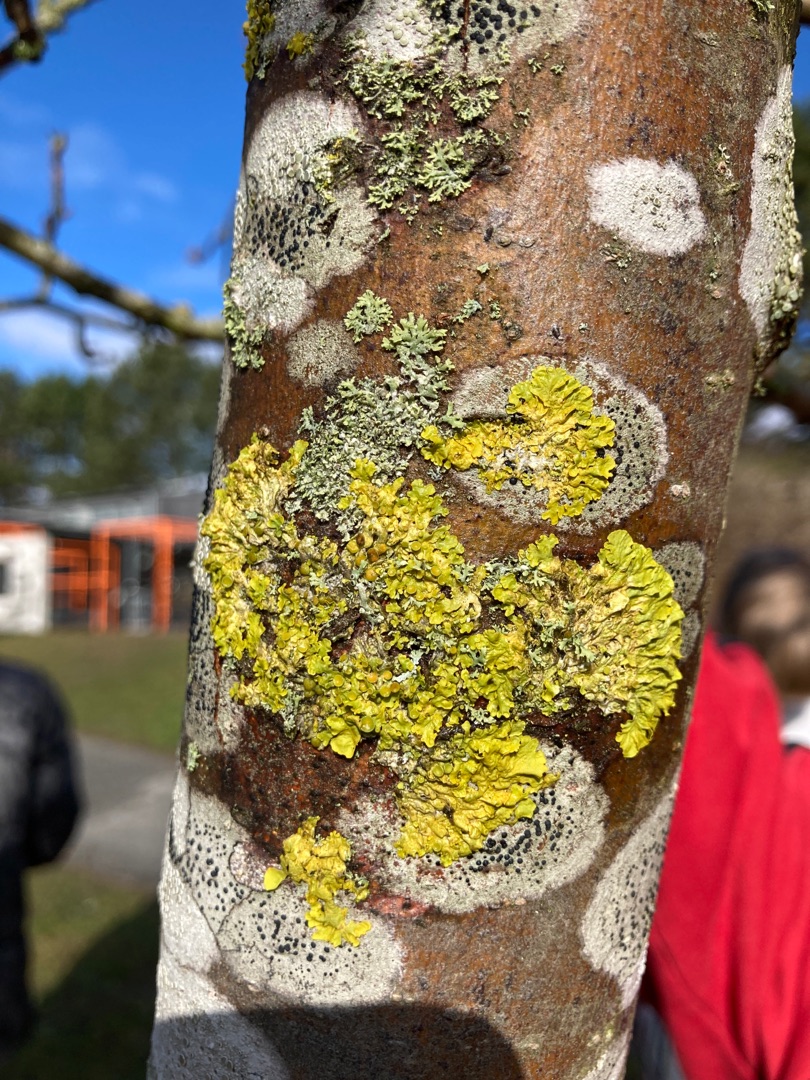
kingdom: Fungi
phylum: Ascomycota
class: Lecanoromycetes
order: Teloschistales
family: Teloschistaceae
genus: Xanthoria
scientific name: Xanthoria parietina
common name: Almindelig væggelav
